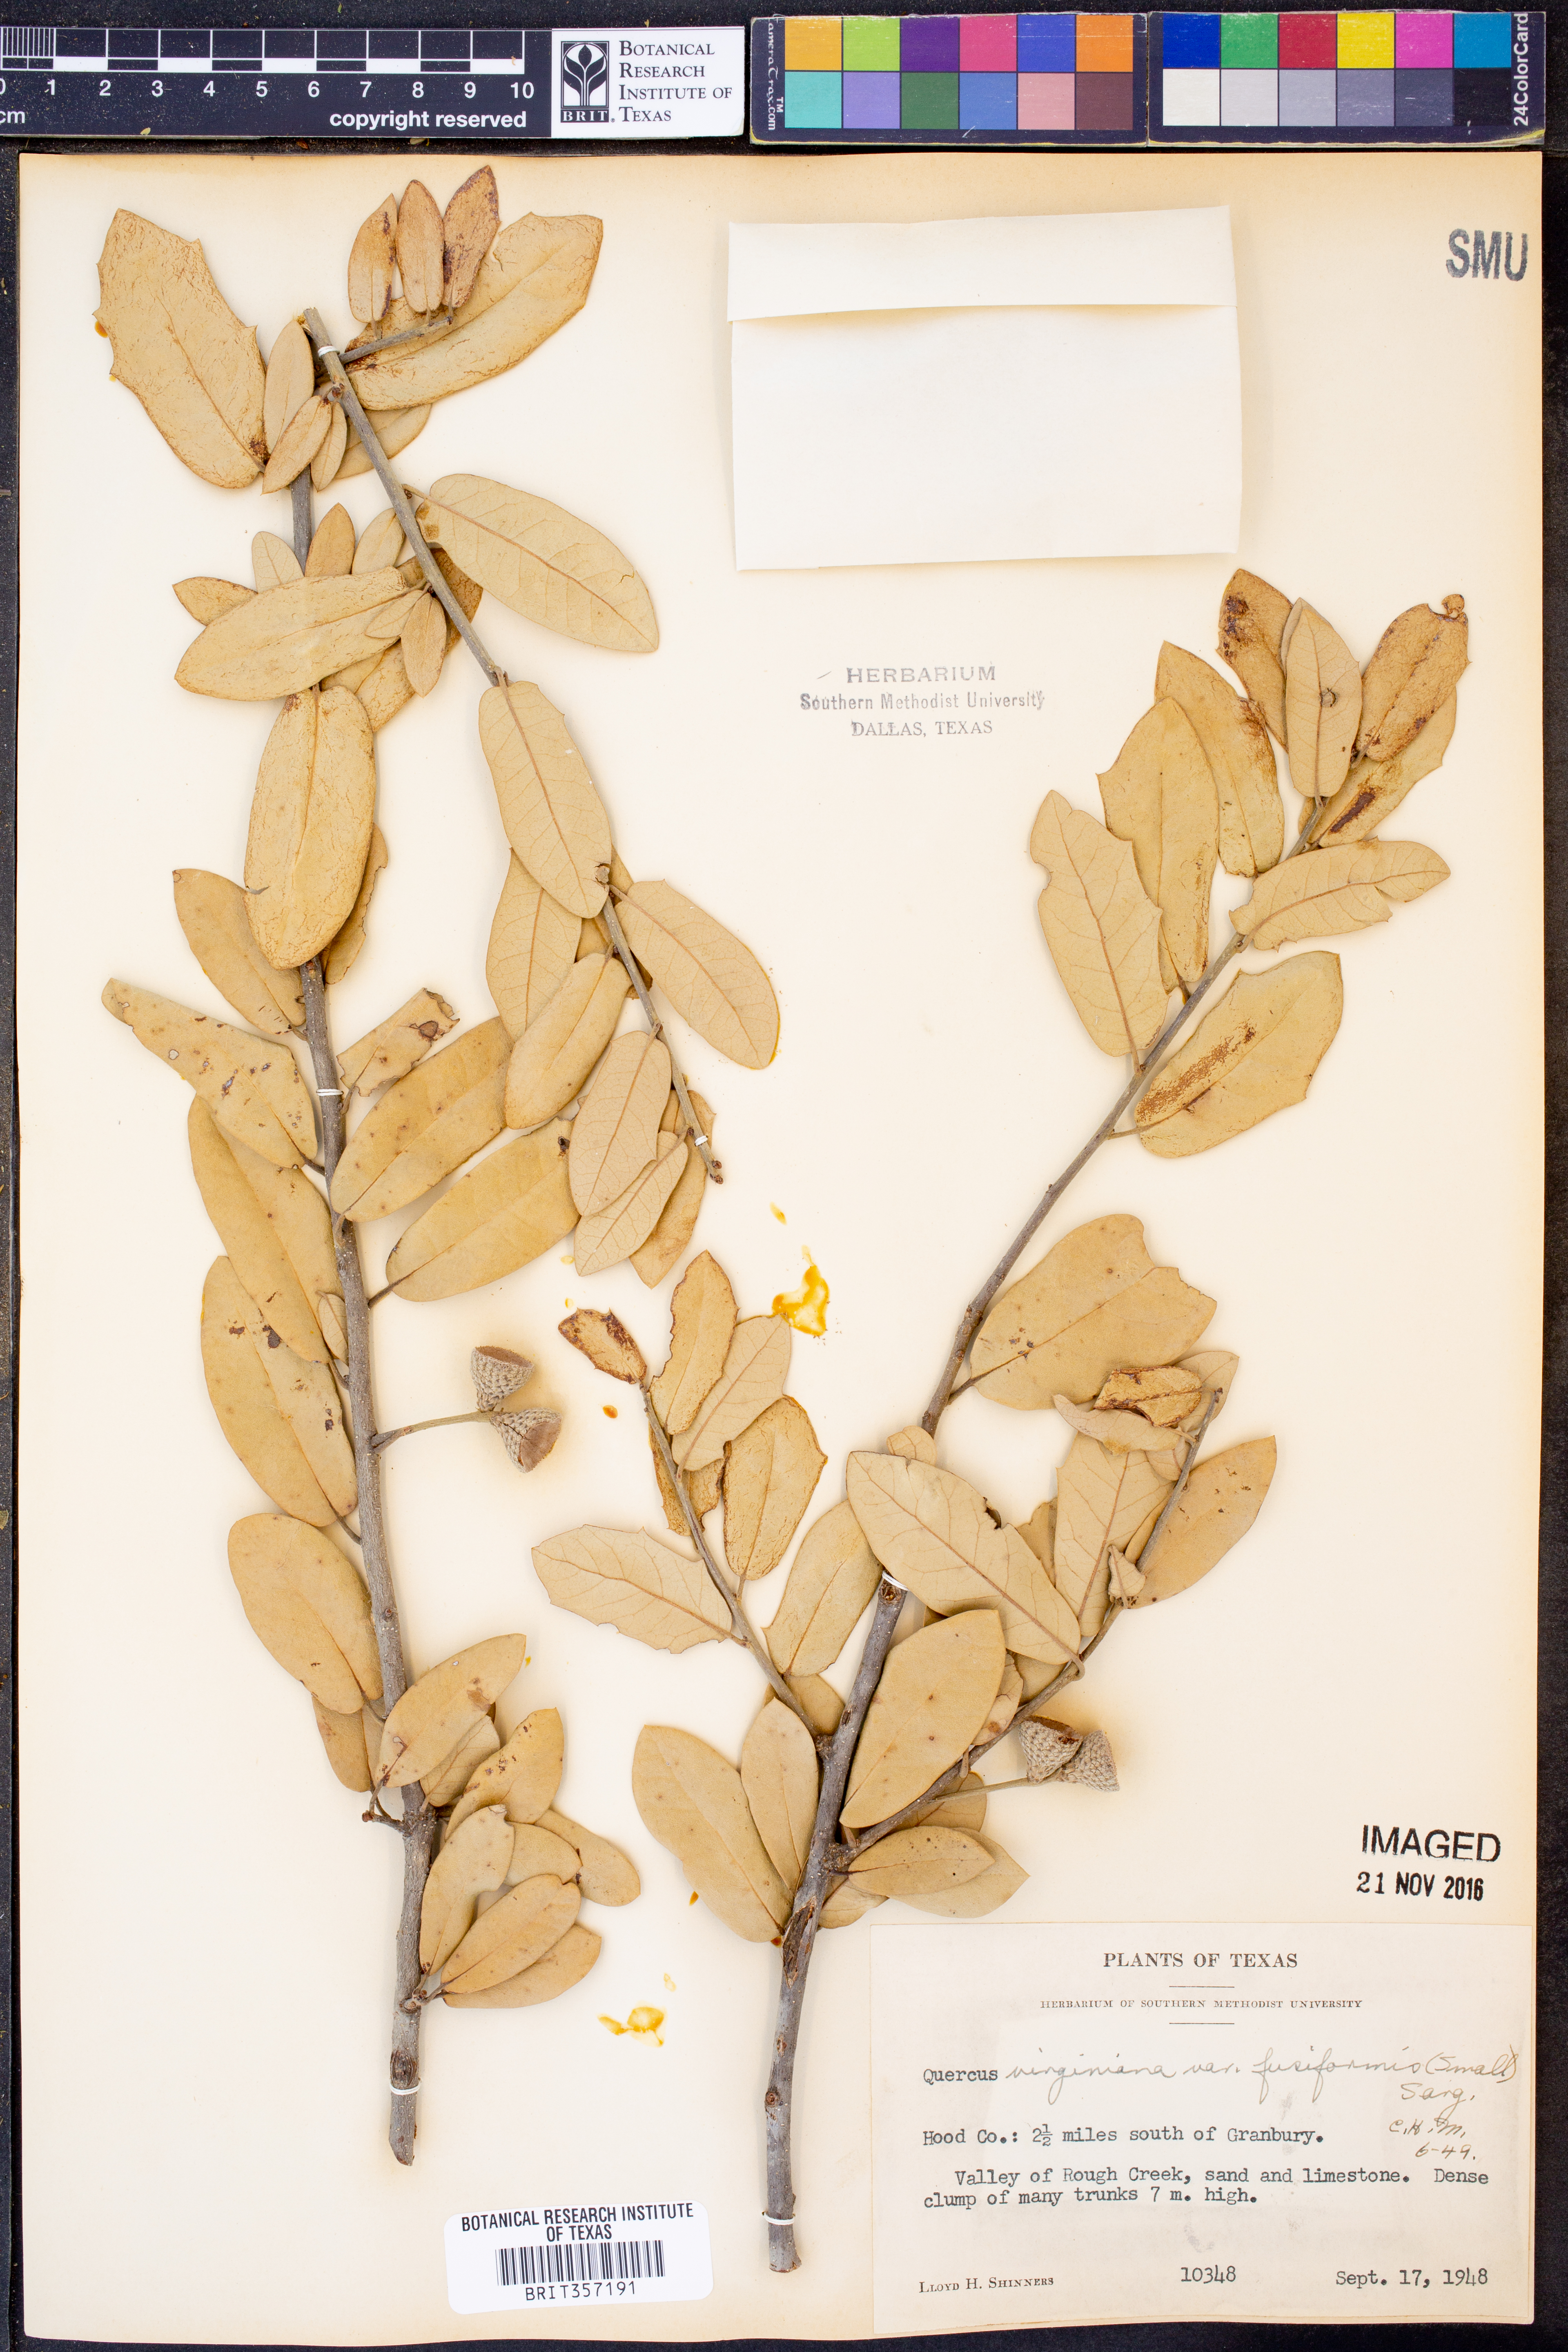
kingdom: Plantae
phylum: Tracheophyta
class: Magnoliopsida
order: Fagales
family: Fagaceae
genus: Quercus
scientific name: Quercus fusiformis
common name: Texas live oak
